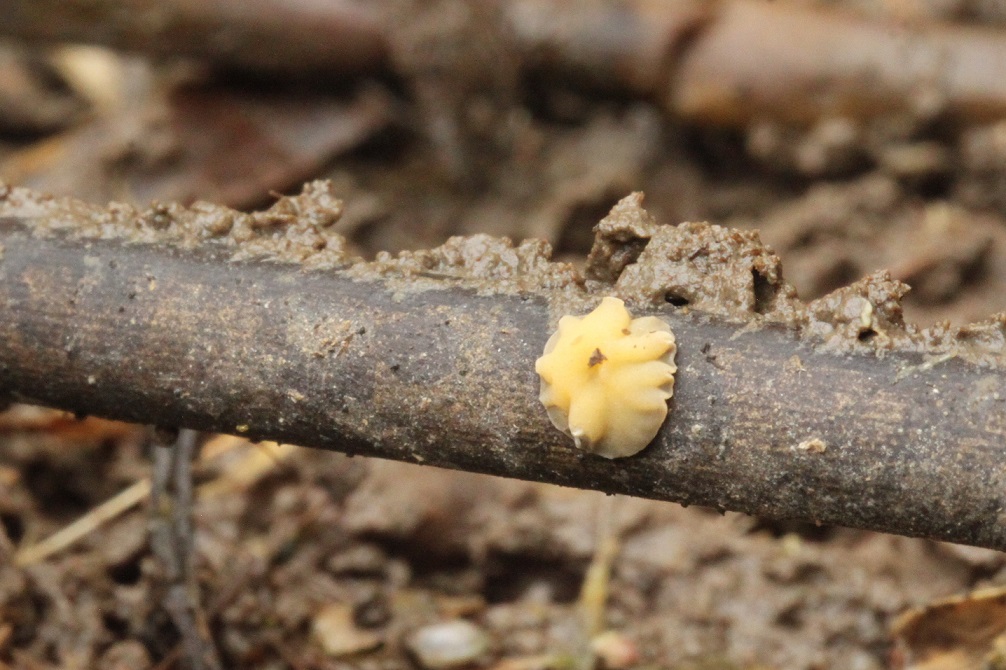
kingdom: Fungi
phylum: Ascomycota
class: Leotiomycetes
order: Helotiales
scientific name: Helotiales
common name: stilkskiveordenen
